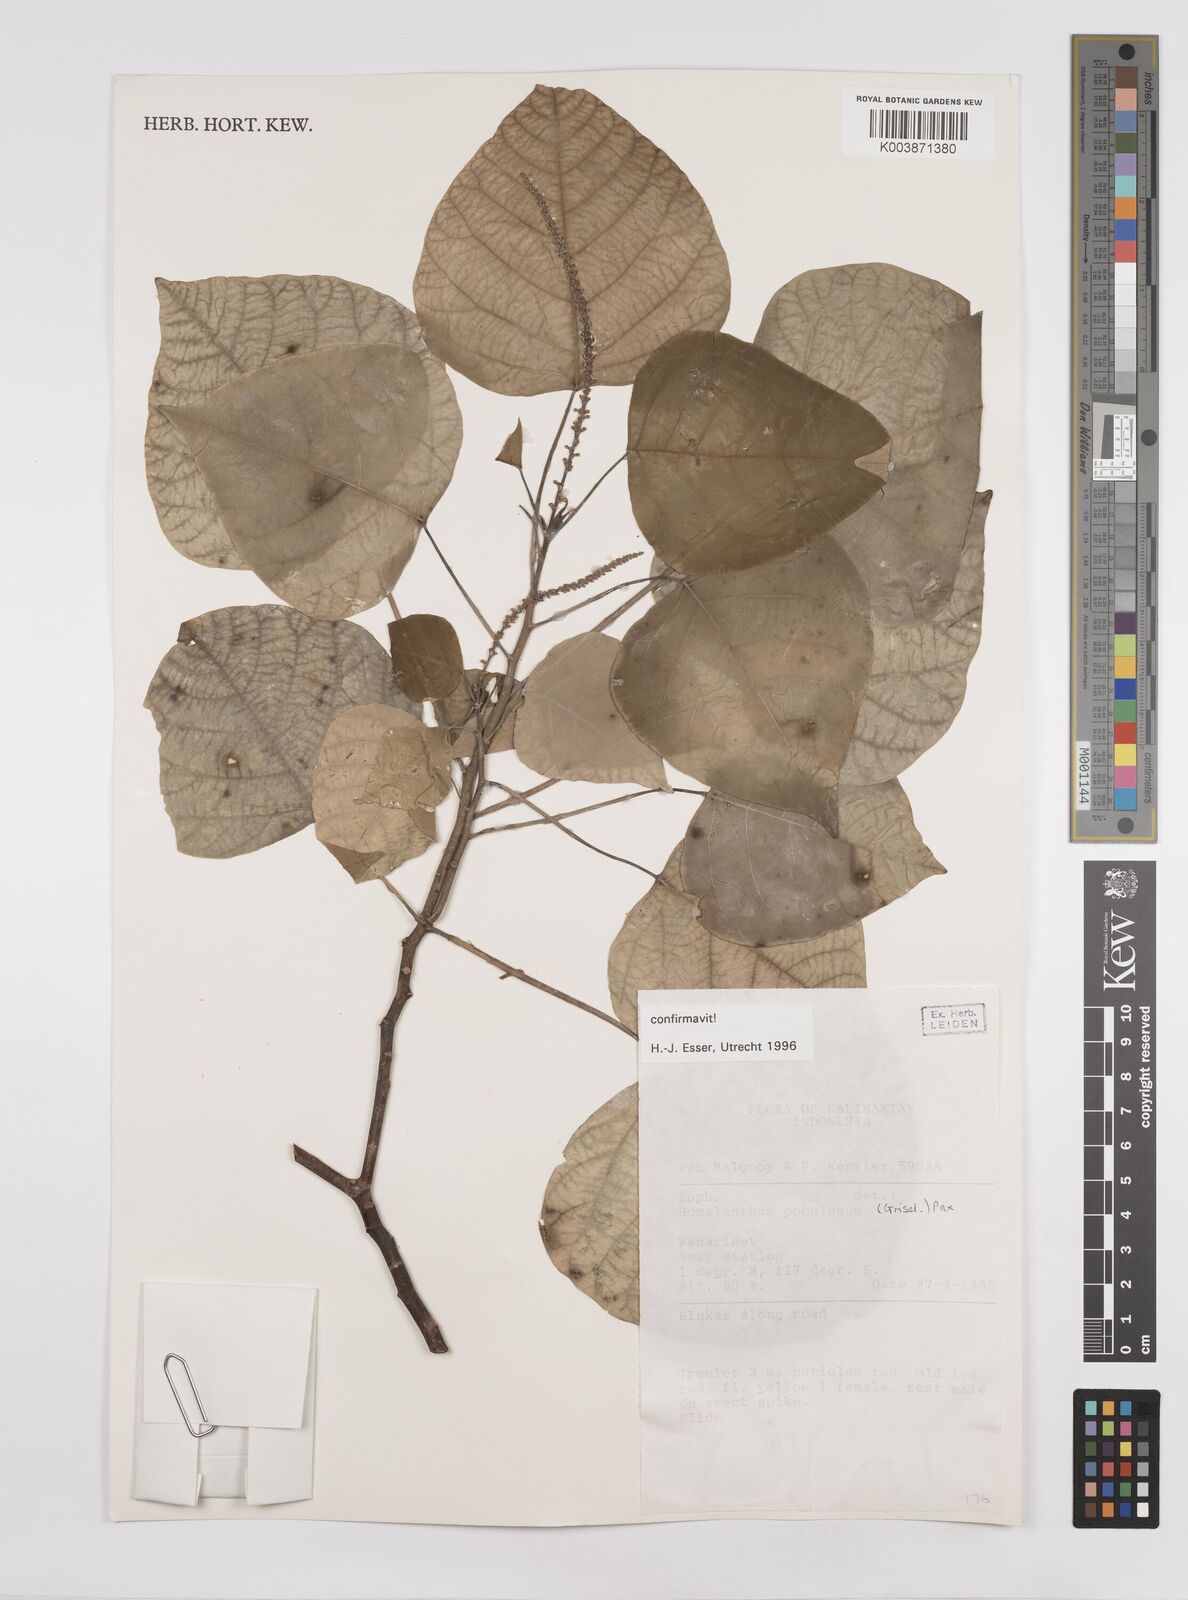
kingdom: Plantae
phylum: Tracheophyta
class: Magnoliopsida
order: Malpighiales
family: Euphorbiaceae
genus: Homalanthus
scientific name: Homalanthus populneus
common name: Spurge
